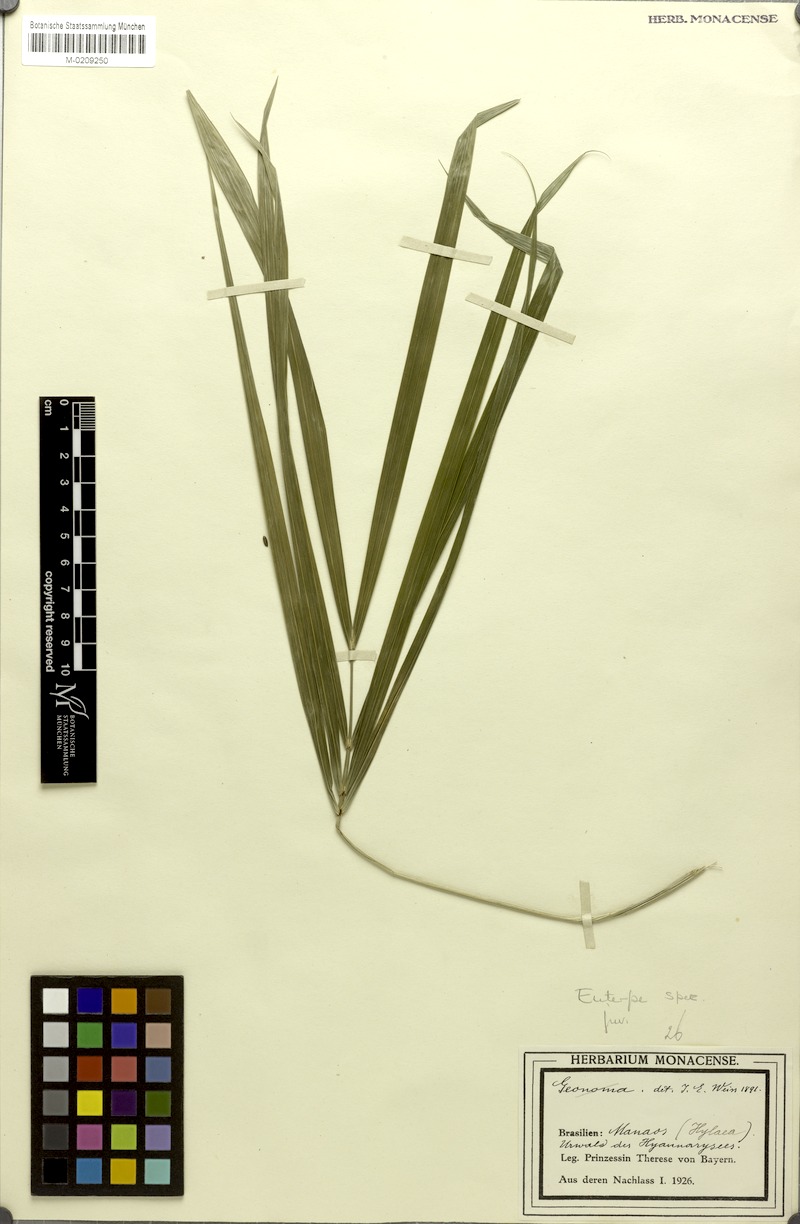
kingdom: Plantae
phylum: Tracheophyta
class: Liliopsida
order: Arecales
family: Arecaceae
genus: Euterpe
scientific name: Euterpe
